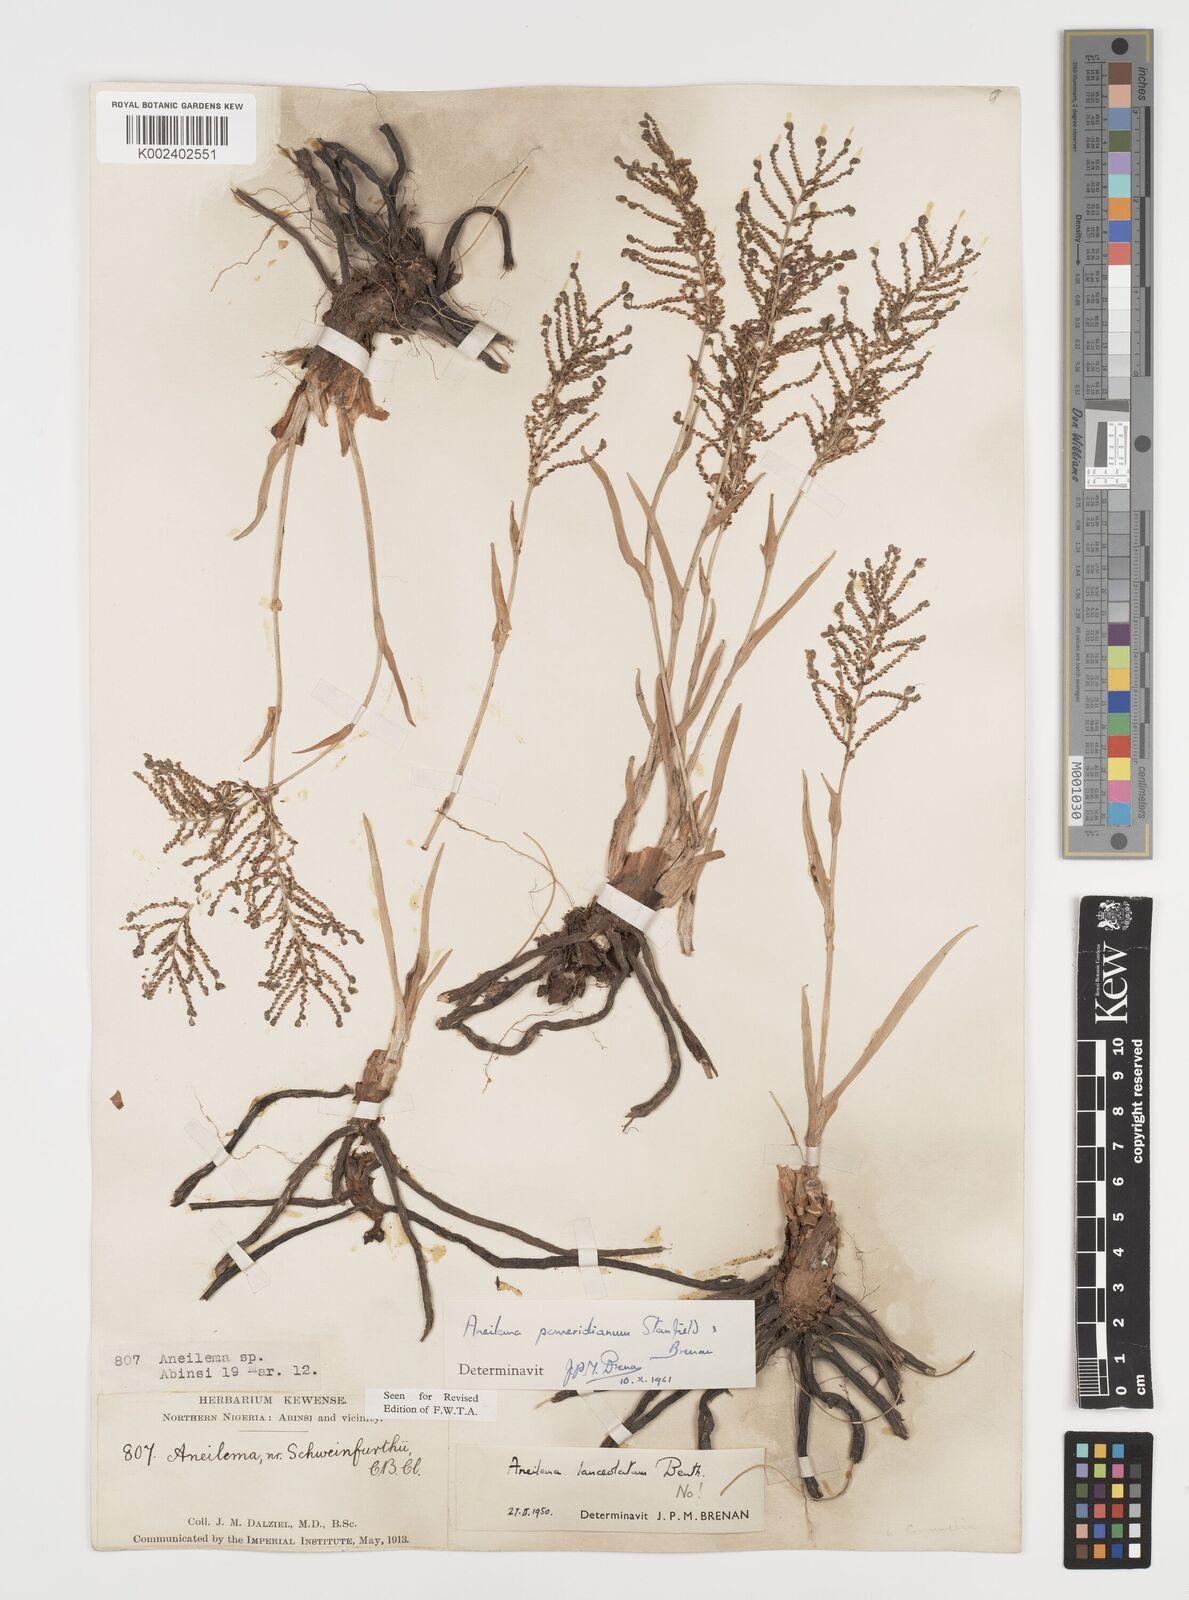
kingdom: Plantae
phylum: Tracheophyta
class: Liliopsida
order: Commelinales
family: Commelinaceae
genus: Aneilema
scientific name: Aneilema pomeridianum
